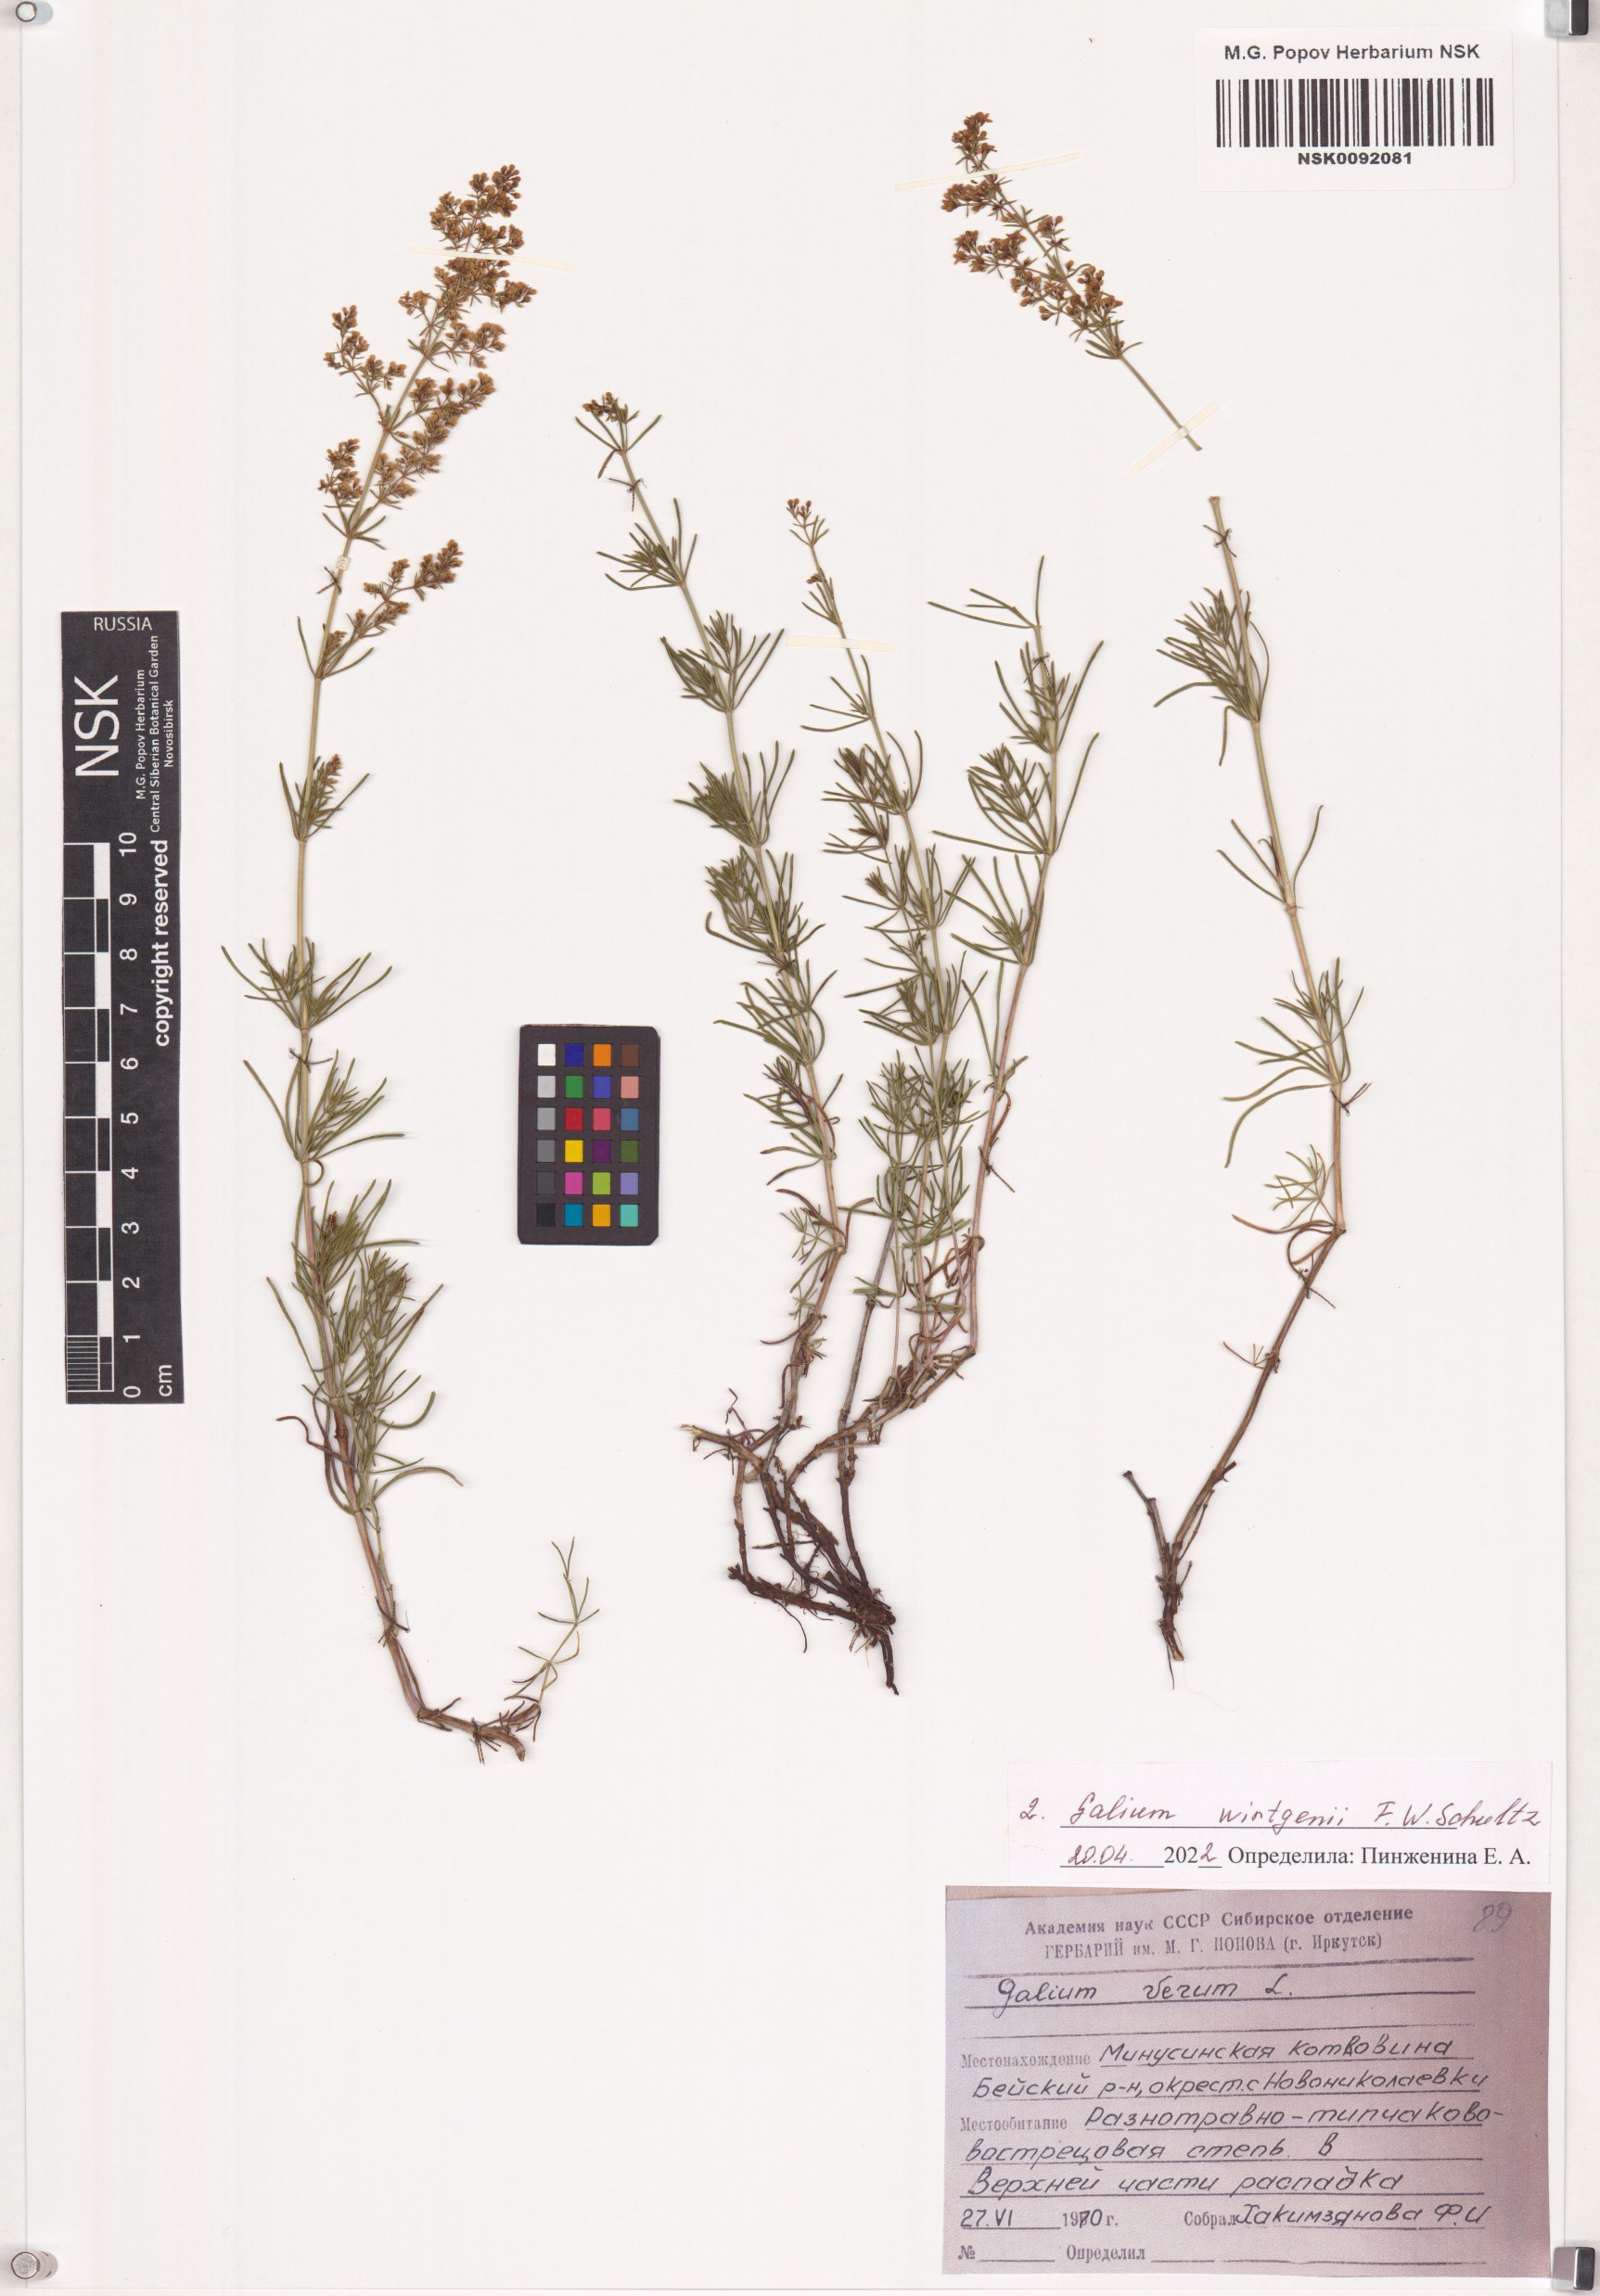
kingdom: Plantae
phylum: Tracheophyta
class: Magnoliopsida
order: Gentianales
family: Rubiaceae
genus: Galium
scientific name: Galium verum
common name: Lady's bedstraw
